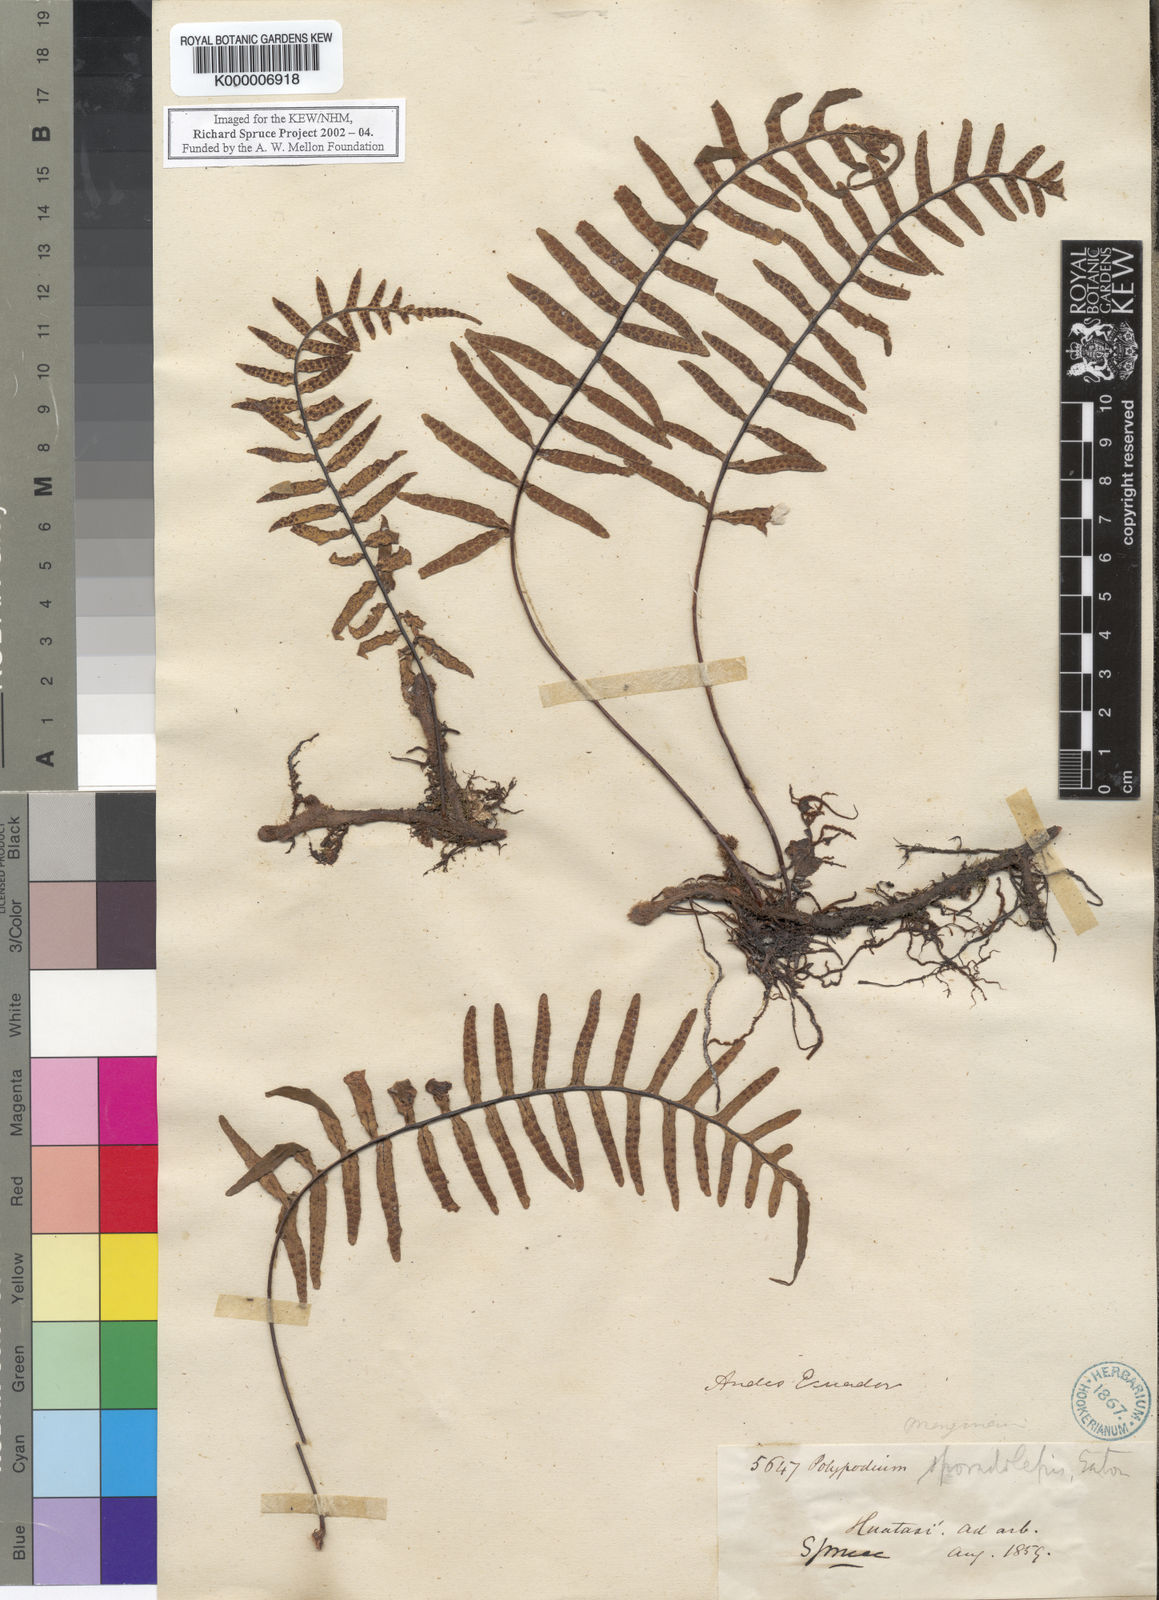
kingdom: Plantae
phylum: Tracheophyta
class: Polypodiopsida
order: Polypodiales
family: Polypodiaceae
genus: Polypodium
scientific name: Polypodium
